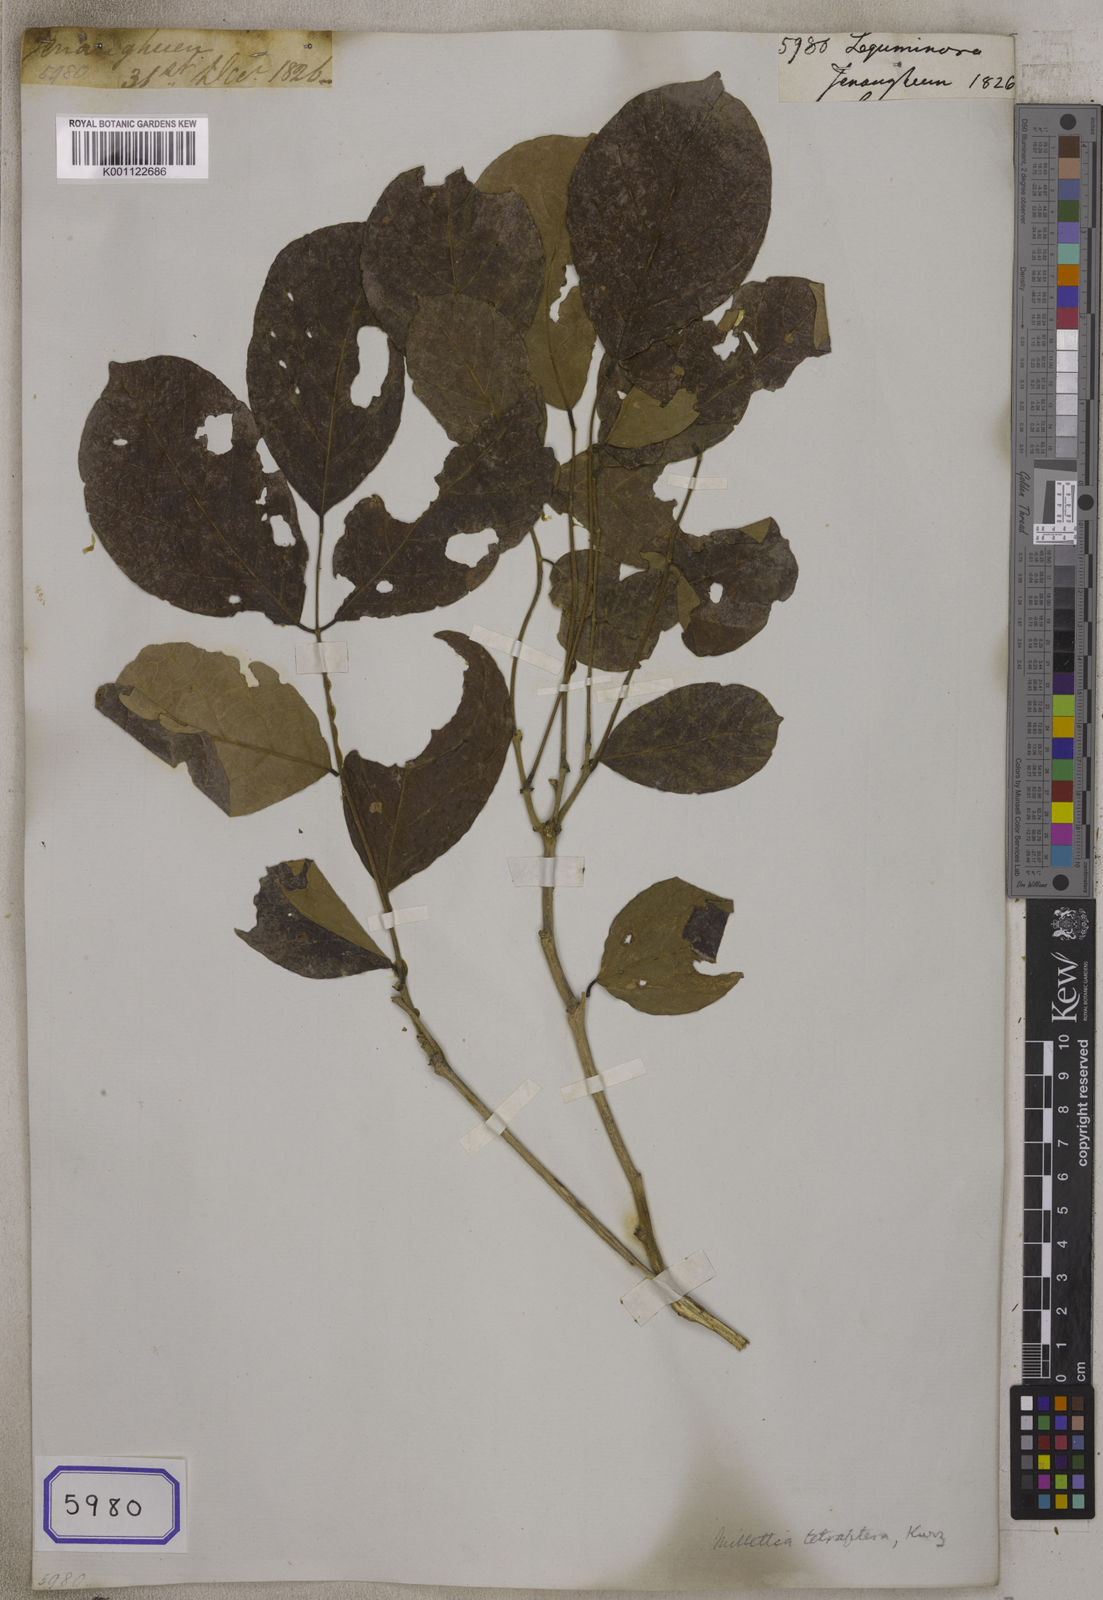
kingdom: Plantae
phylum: Tracheophyta
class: Magnoliopsida
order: Fabales
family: Fabaceae
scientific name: Fabaceae
